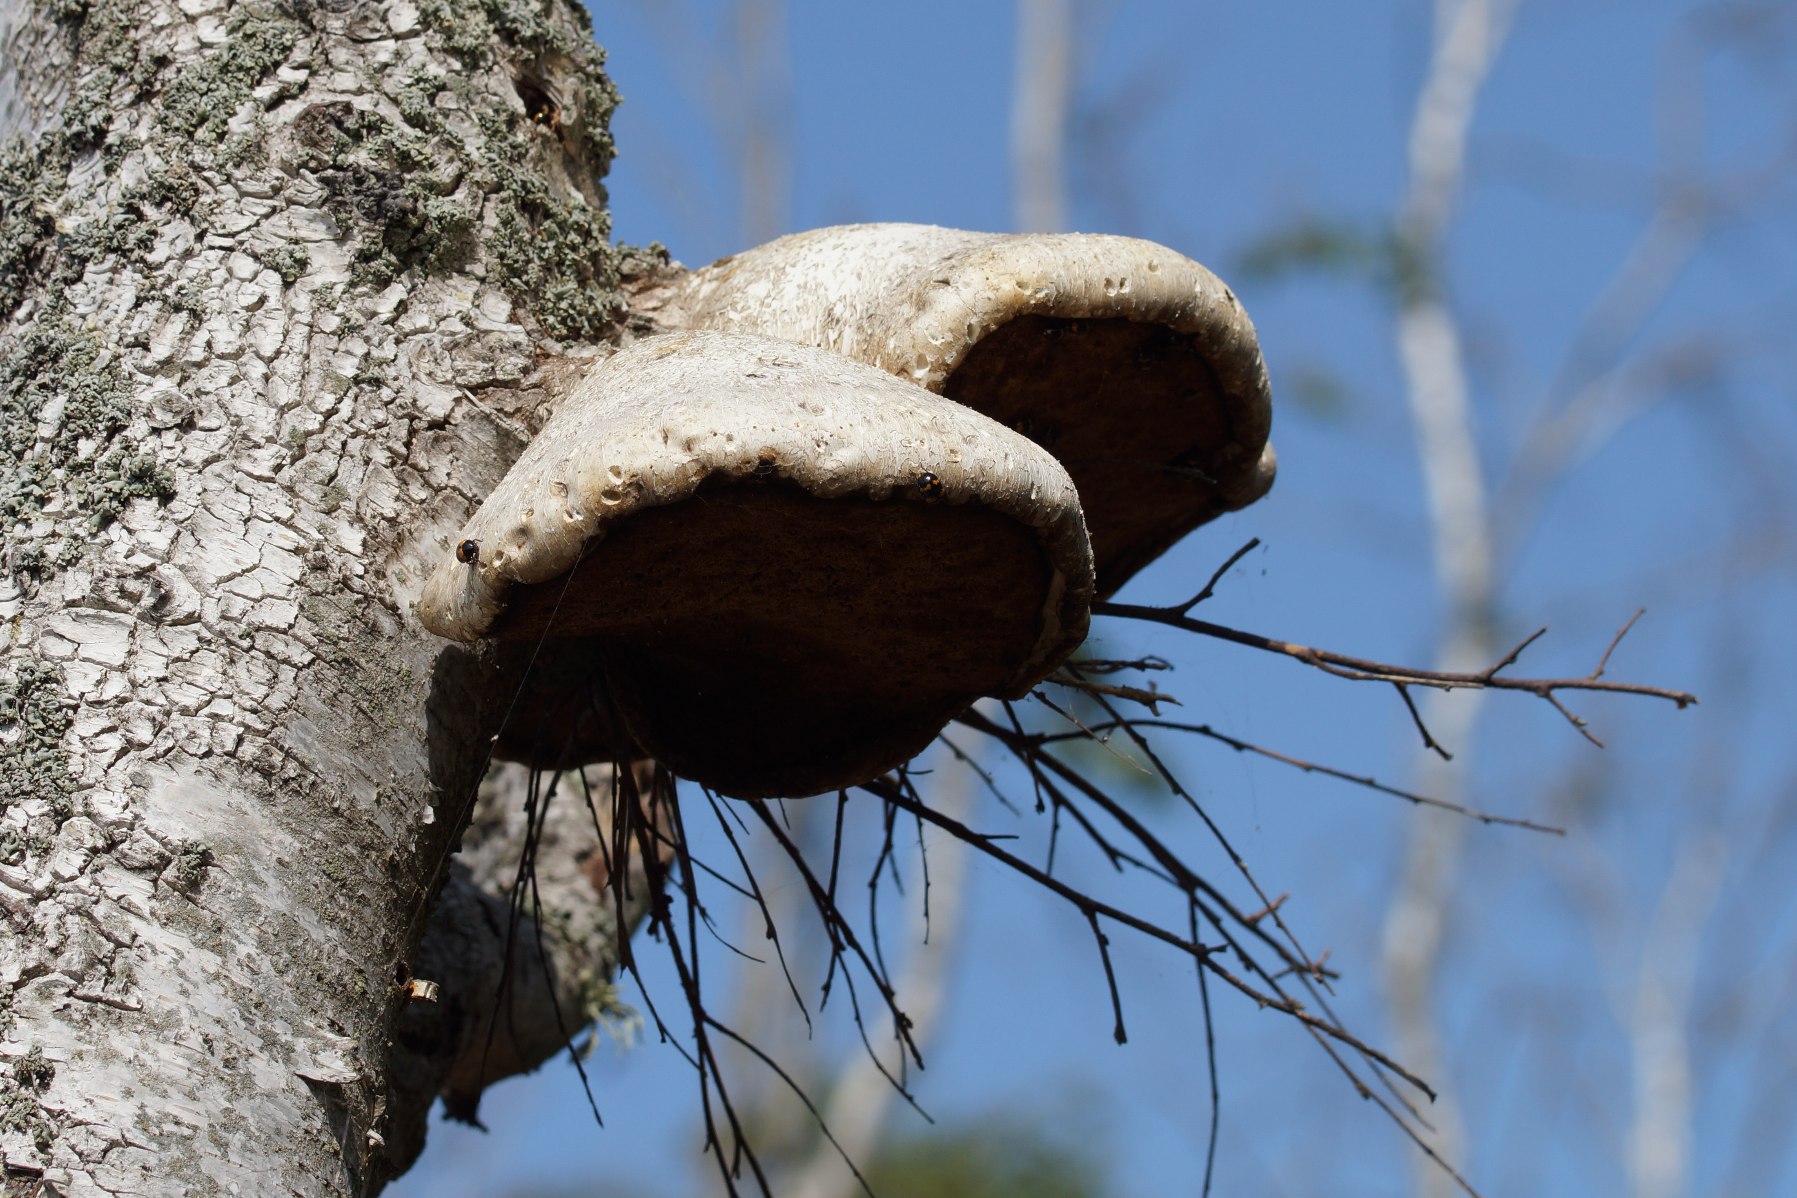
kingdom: Fungi
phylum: Basidiomycota
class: Agaricomycetes
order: Polyporales
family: Fomitopsidaceae
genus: Fomitopsis
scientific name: Fomitopsis betulina
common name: Birkeporesvamp
